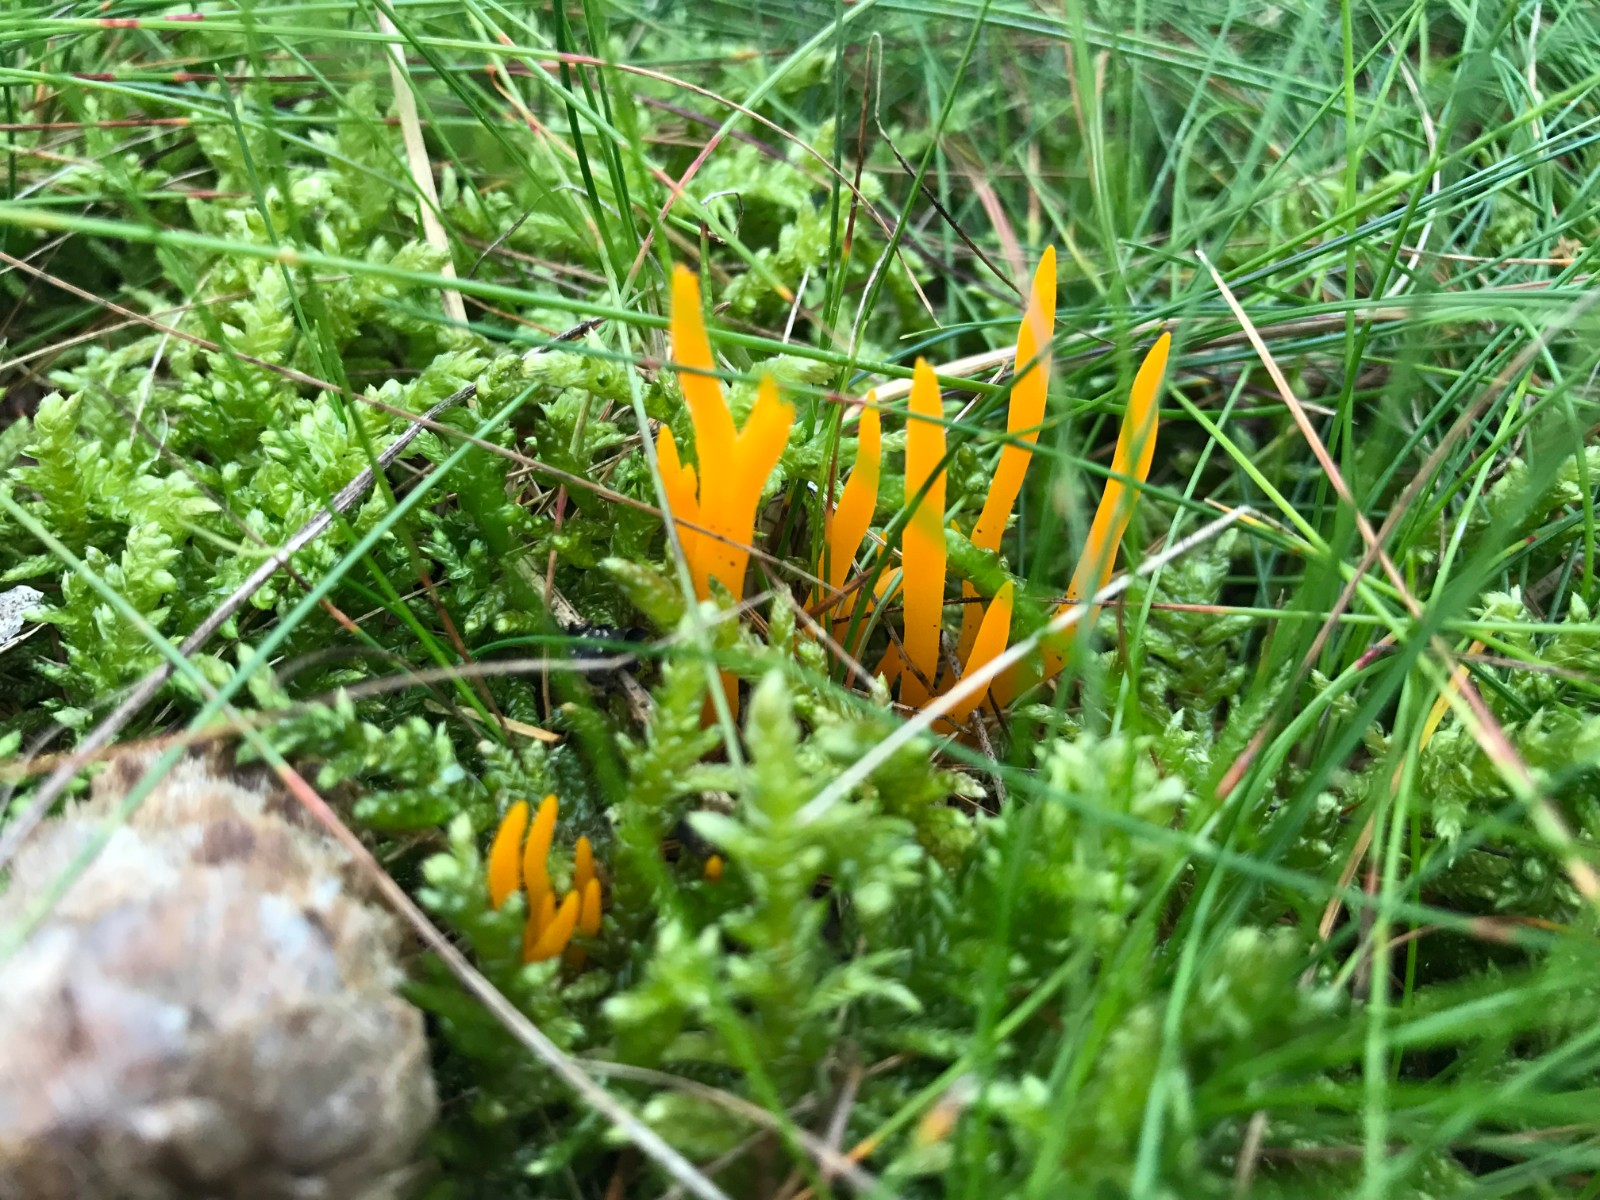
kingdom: Fungi
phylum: Basidiomycota
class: Dacrymycetes
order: Dacrymycetales
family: Dacrymycetaceae
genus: Calocera
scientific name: Calocera viscosa
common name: almindelig guldgaffel
